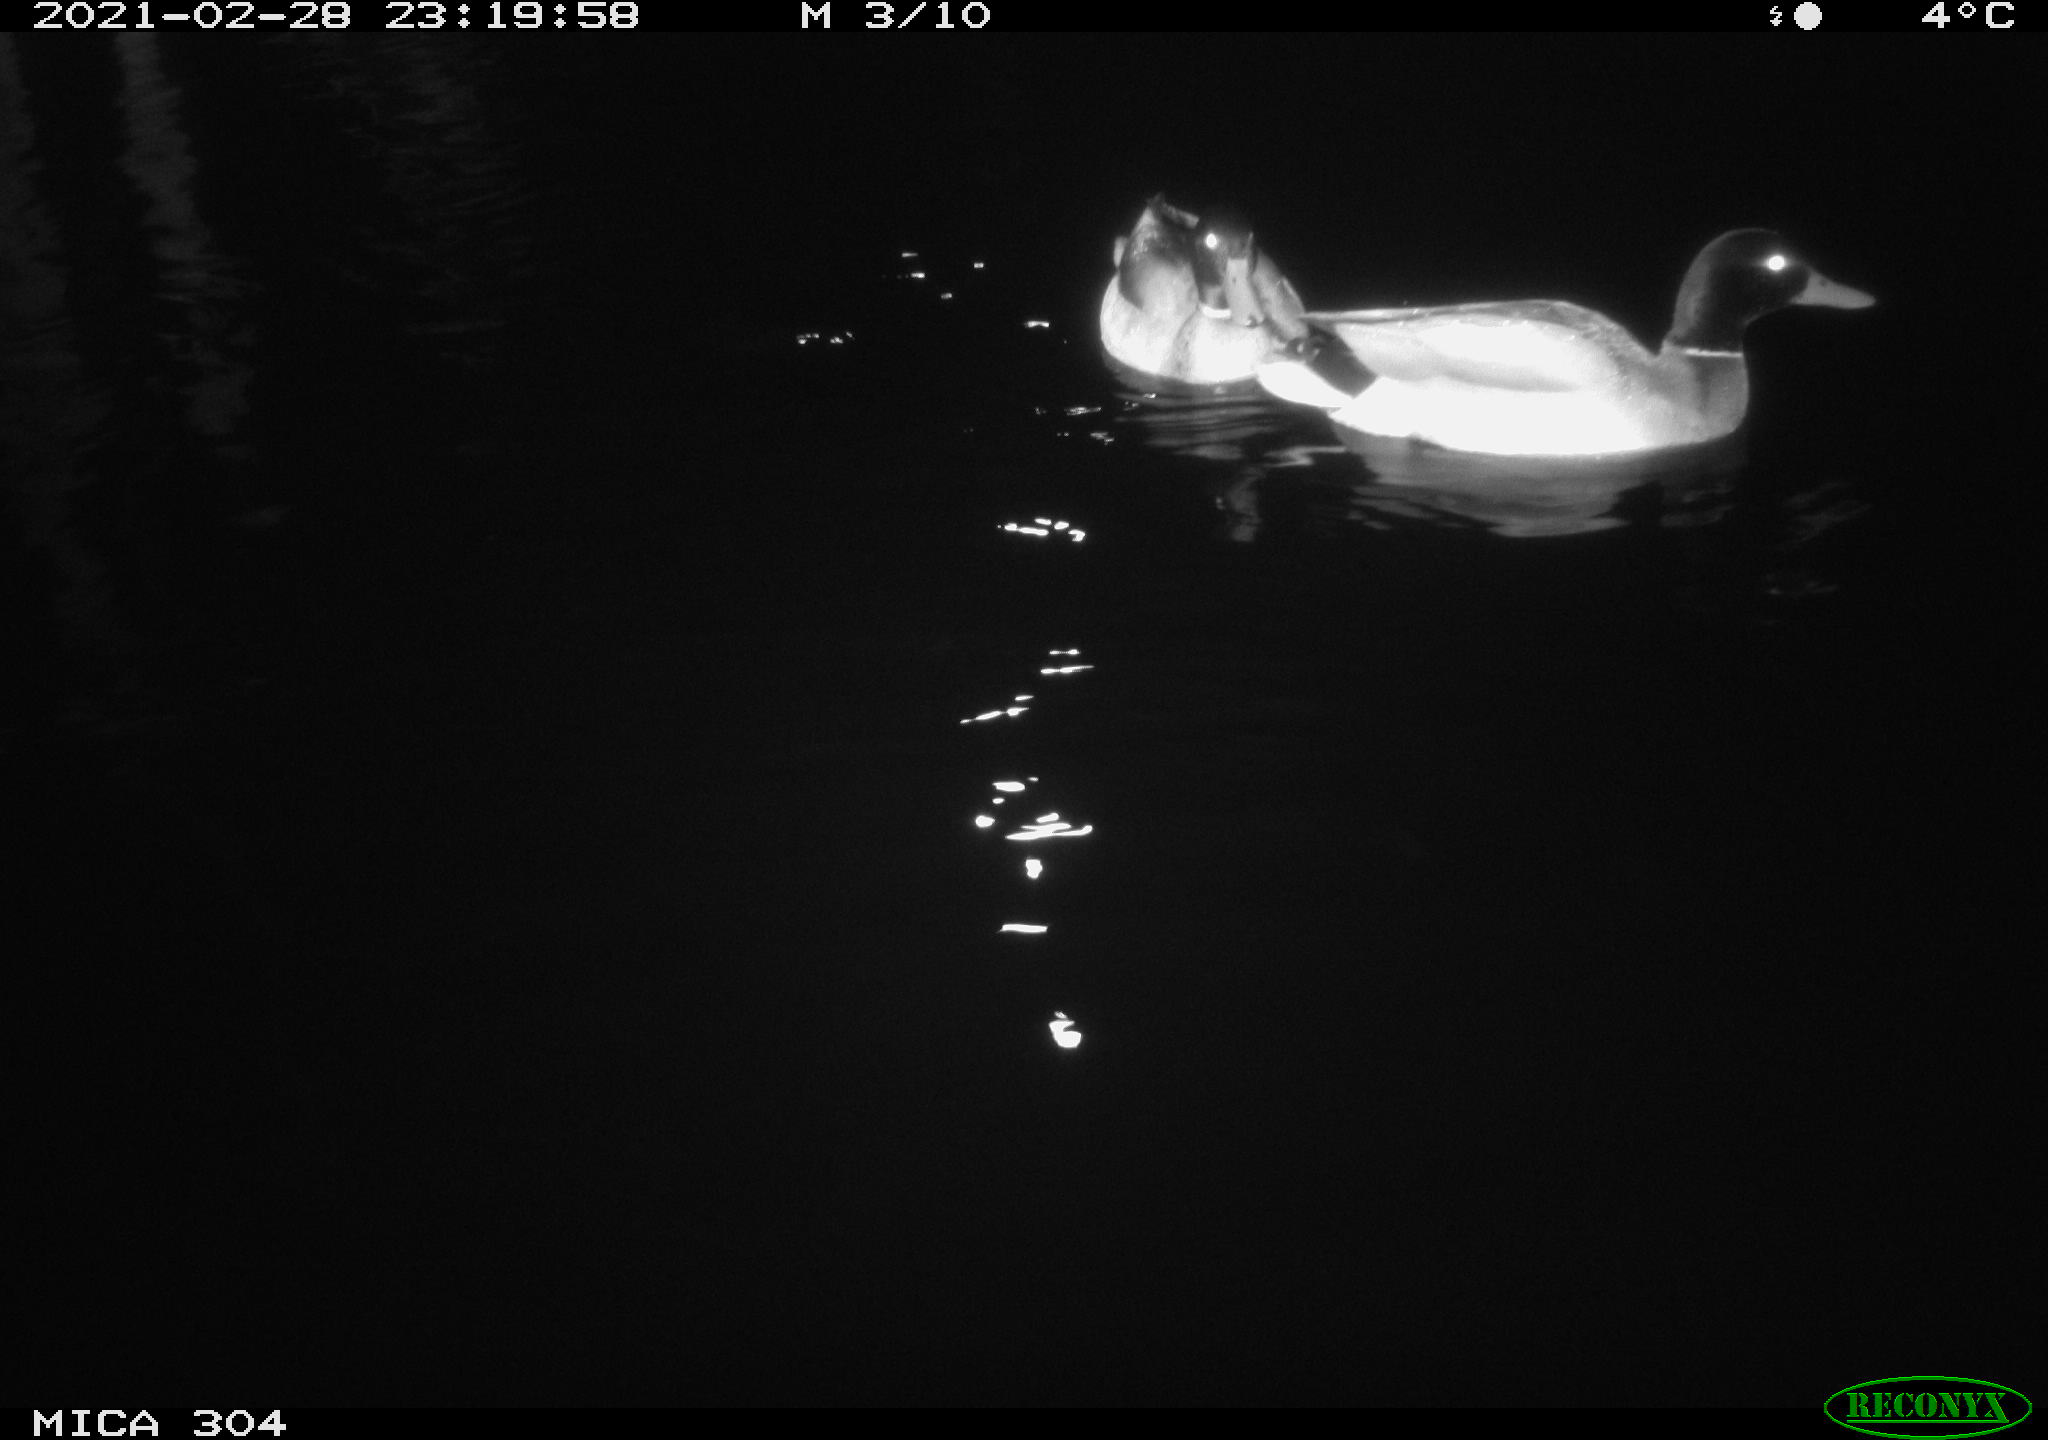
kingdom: Animalia
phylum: Chordata
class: Aves
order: Anseriformes
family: Anatidae
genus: Anas
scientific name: Anas platyrhynchos
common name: Mallard
